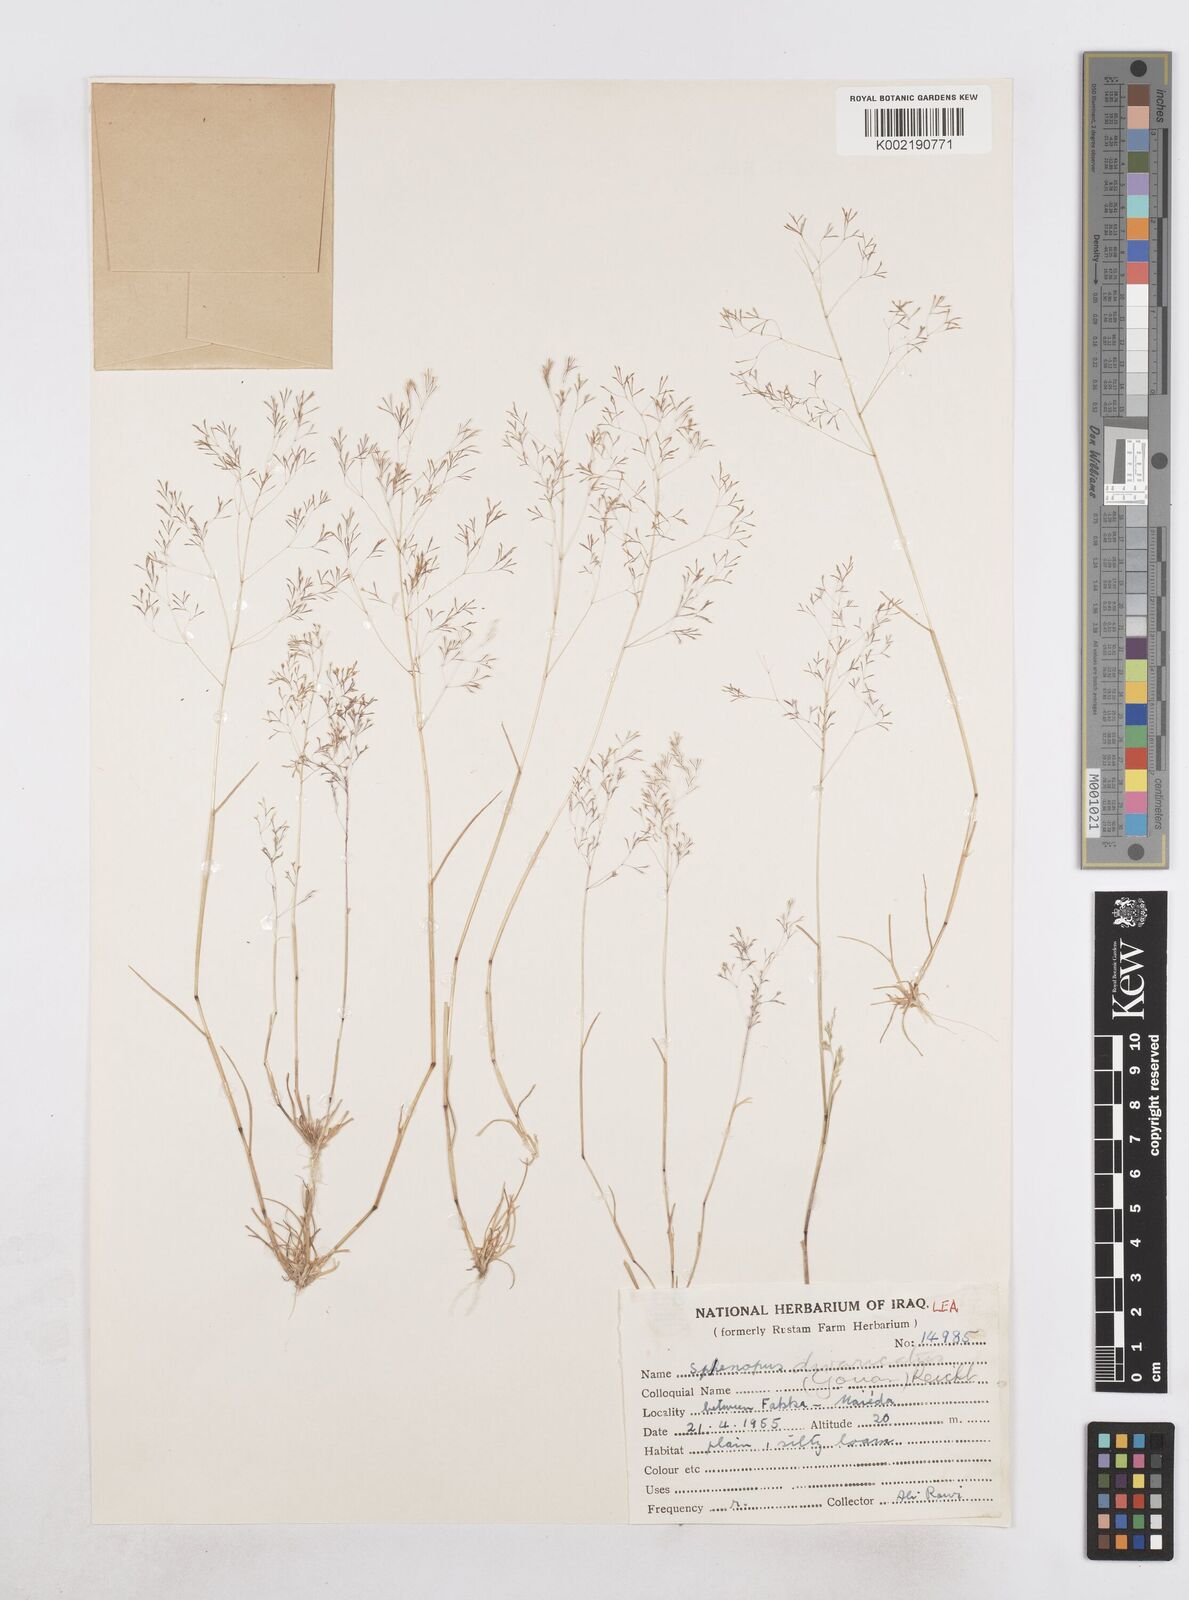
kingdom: Plantae
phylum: Tracheophyta
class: Liliopsida
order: Poales
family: Poaceae
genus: Sphenopus
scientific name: Sphenopus divaricatus
